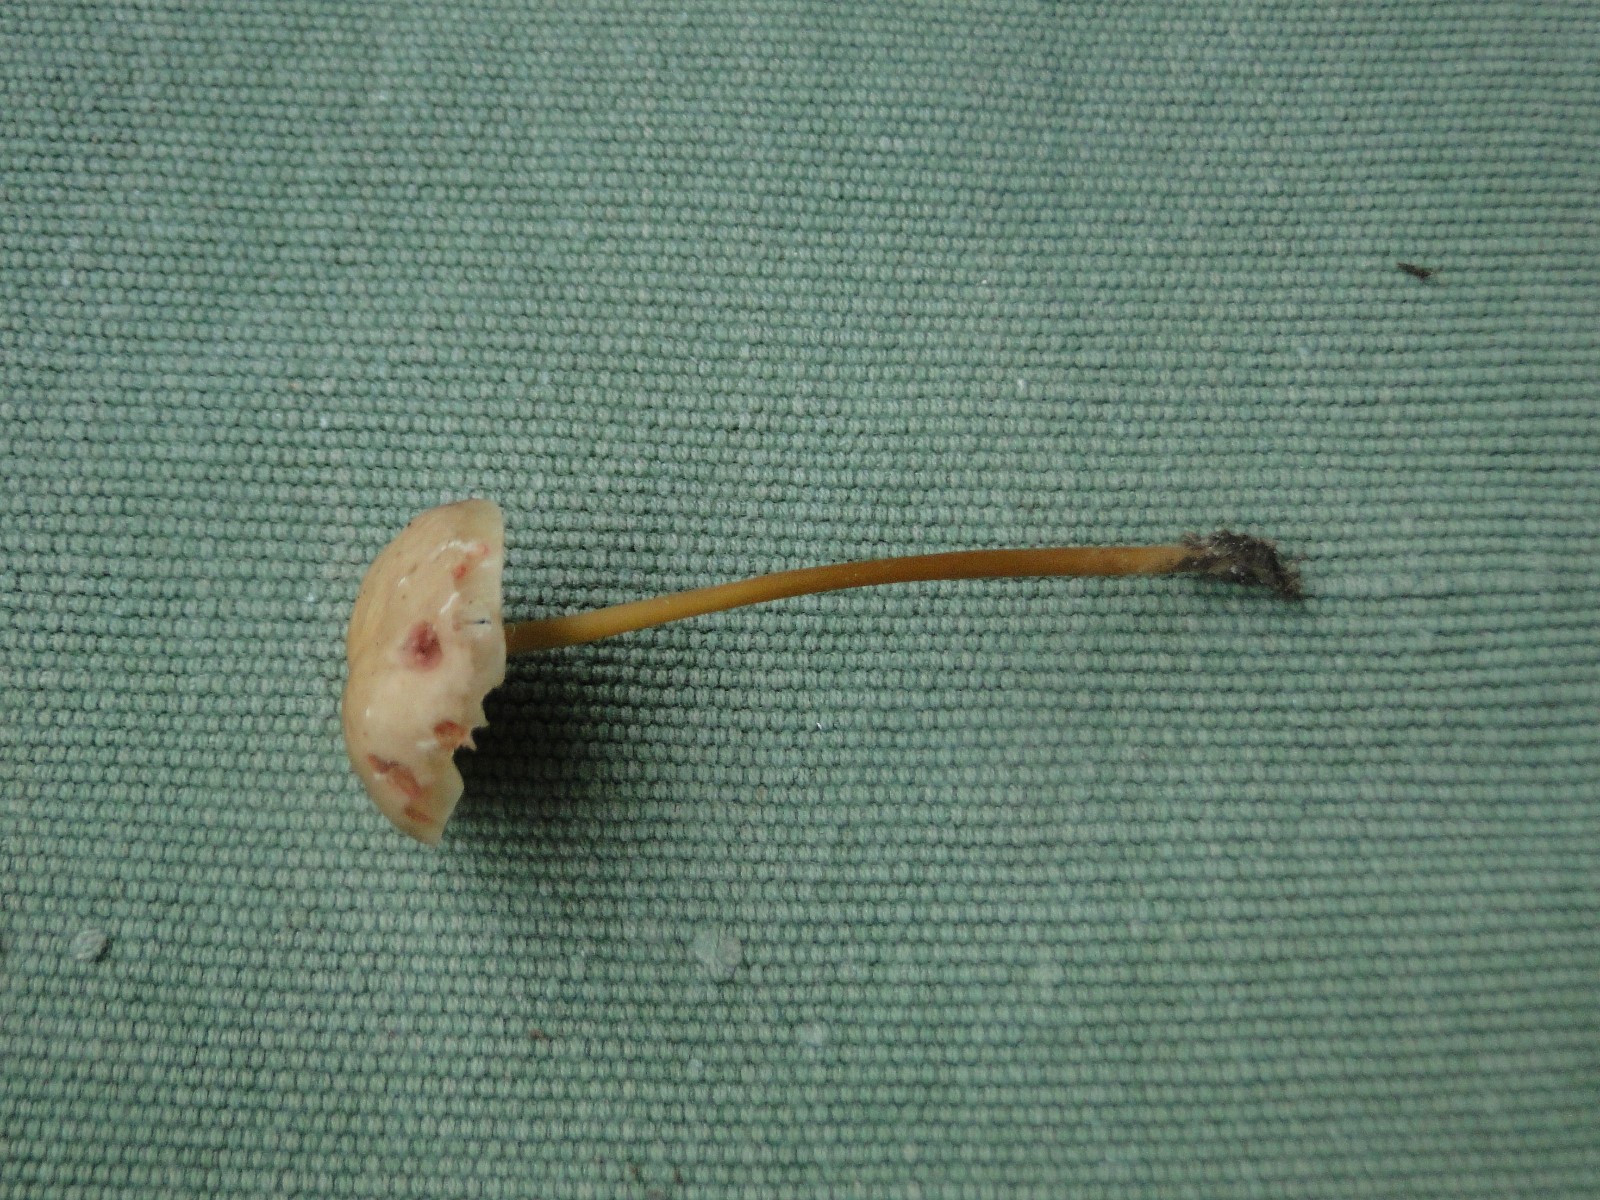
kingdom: Fungi
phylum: Basidiomycota
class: Agaricomycetes
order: Agaricales
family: Mycenaceae
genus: Mycena
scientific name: Mycena sanguinolenta
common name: rødmælket huesvamp
